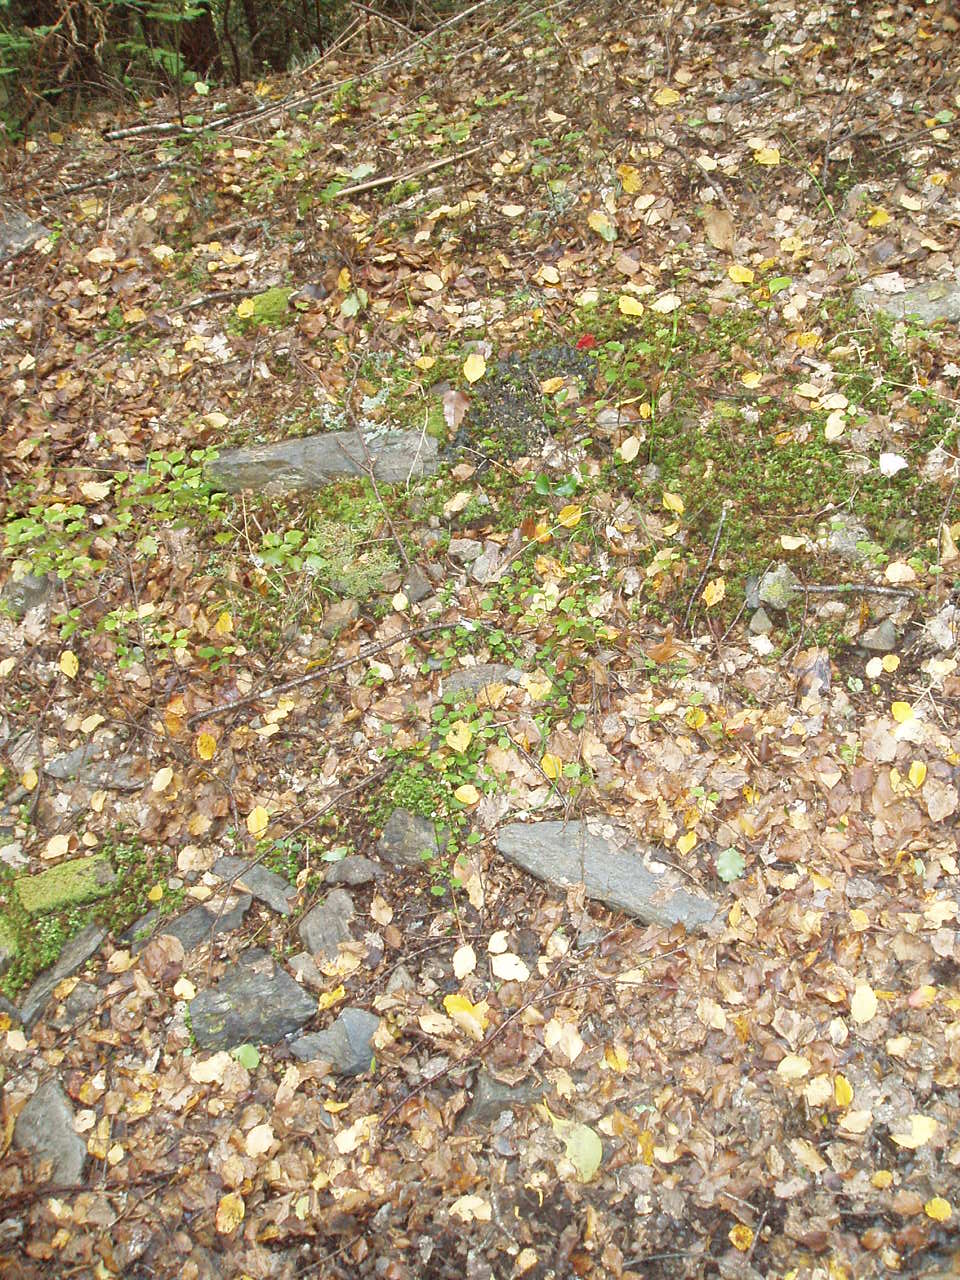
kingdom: Plantae
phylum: Tracheophyta
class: Polypodiopsida
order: Polypodiales
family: Polypodiaceae
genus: Notogrammitis
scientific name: Notogrammitis billardierei
